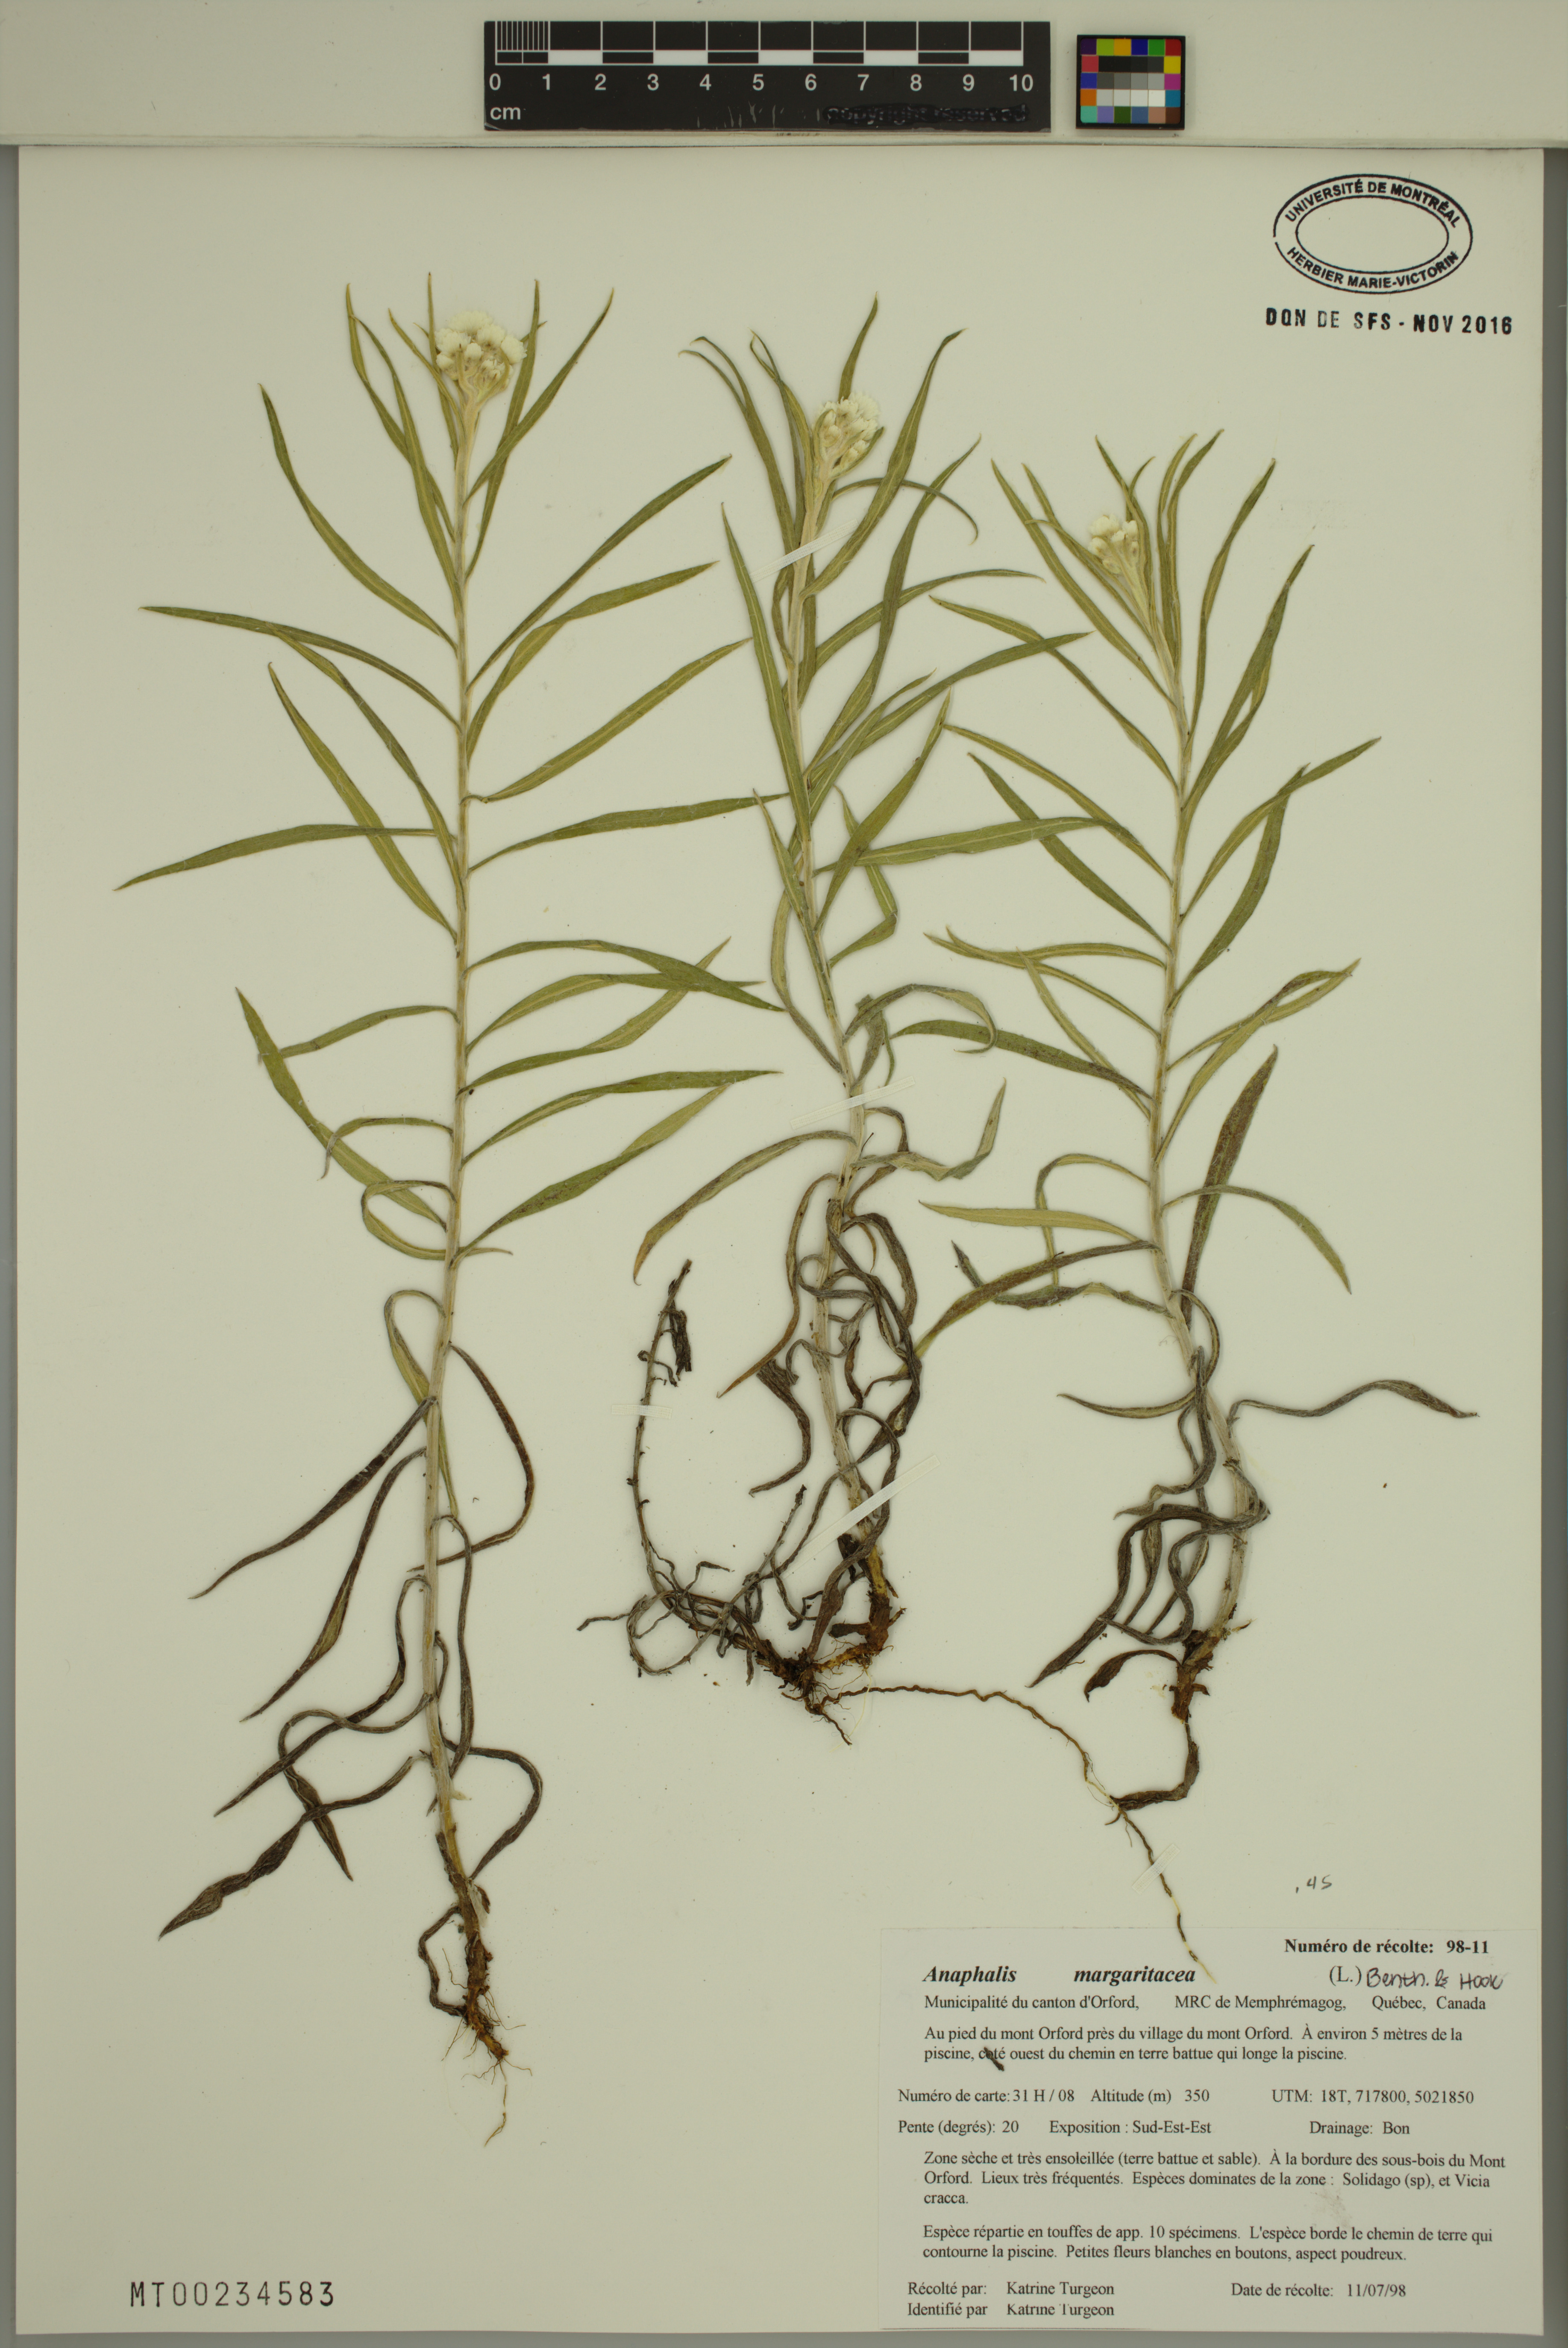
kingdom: Plantae
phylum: Tracheophyta
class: Magnoliopsida
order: Asterales
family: Asteraceae
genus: Anaphalis
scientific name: Anaphalis margaritacea
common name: Pearly everlasting
